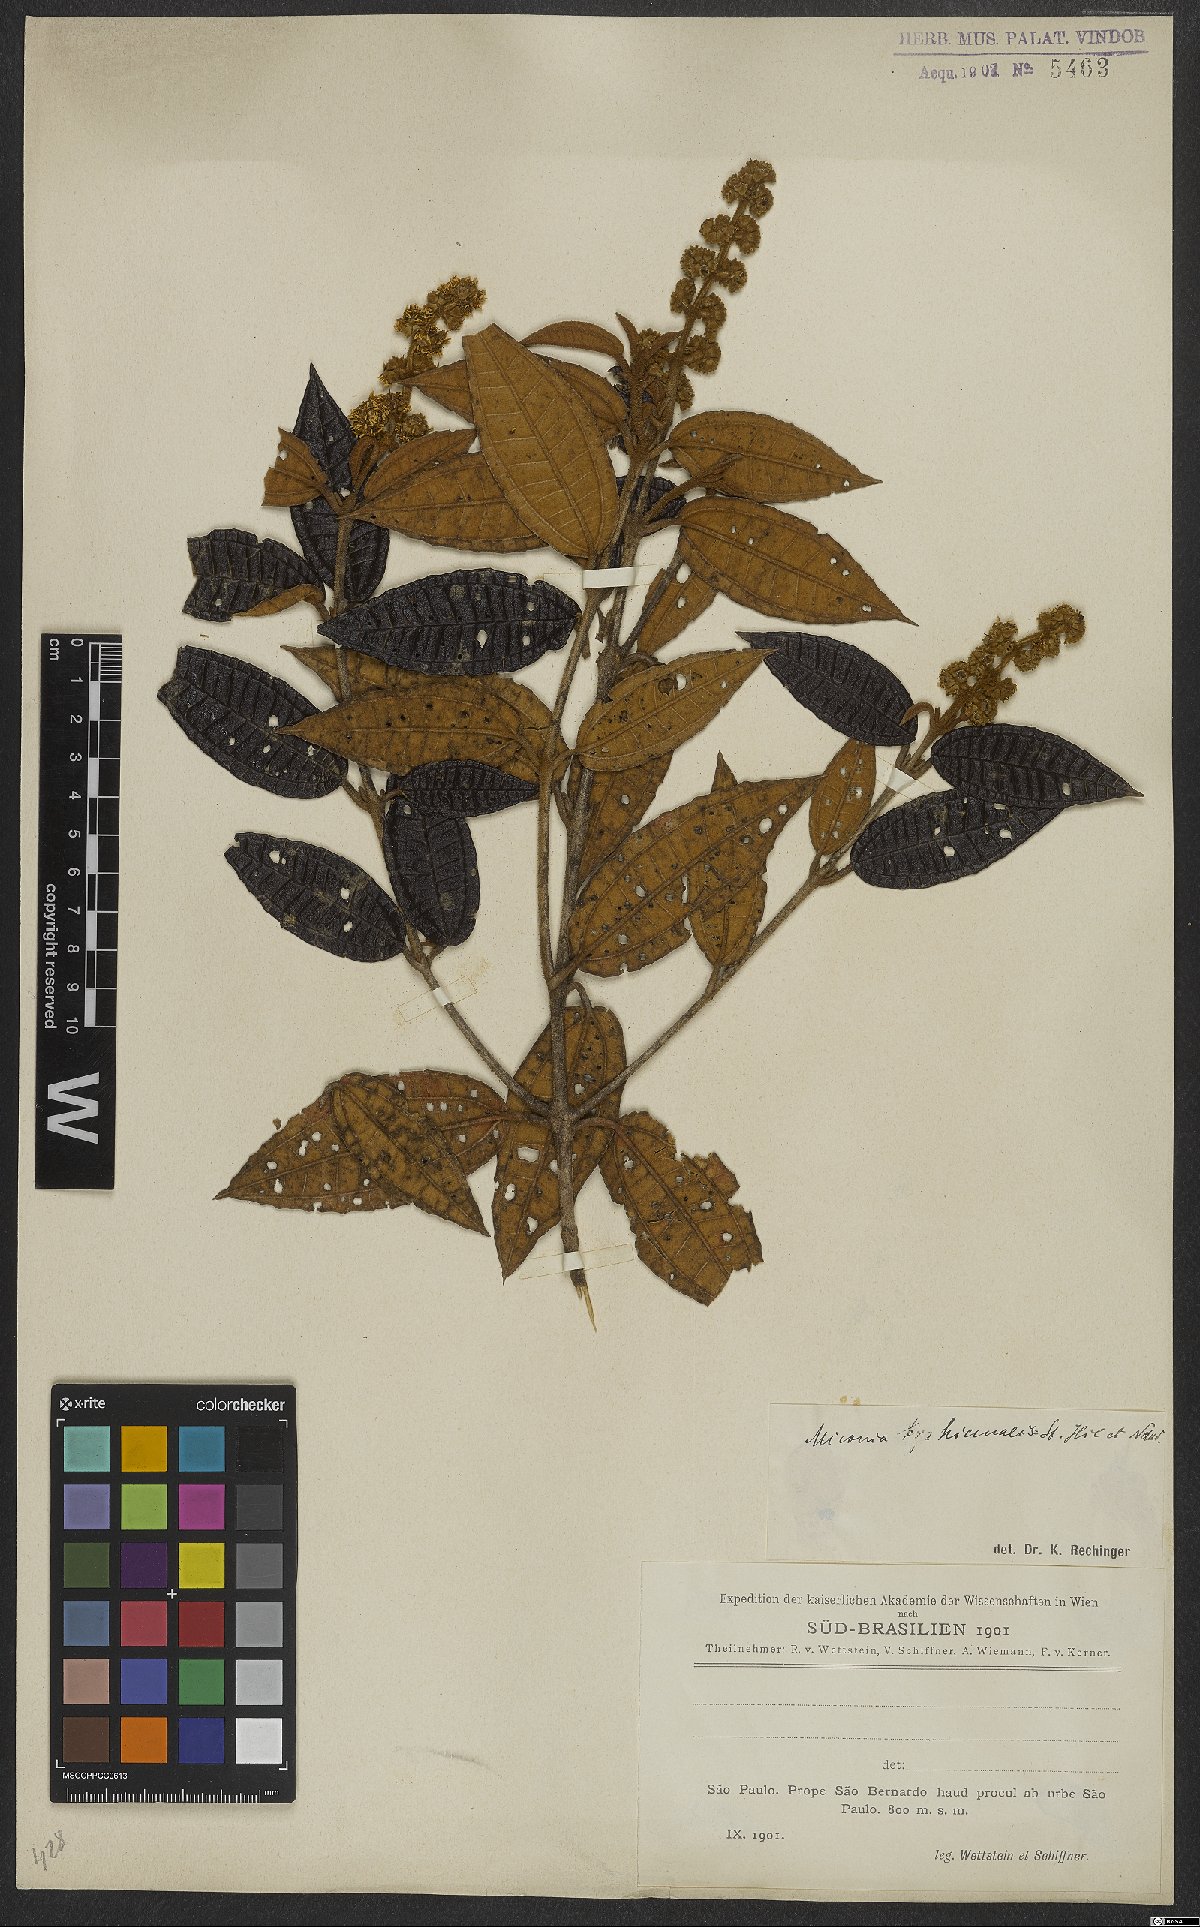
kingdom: Plantae
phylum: Tracheophyta
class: Magnoliopsida
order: Myrtales
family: Melastomataceae
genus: Miconia
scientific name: Miconia hyemalis
